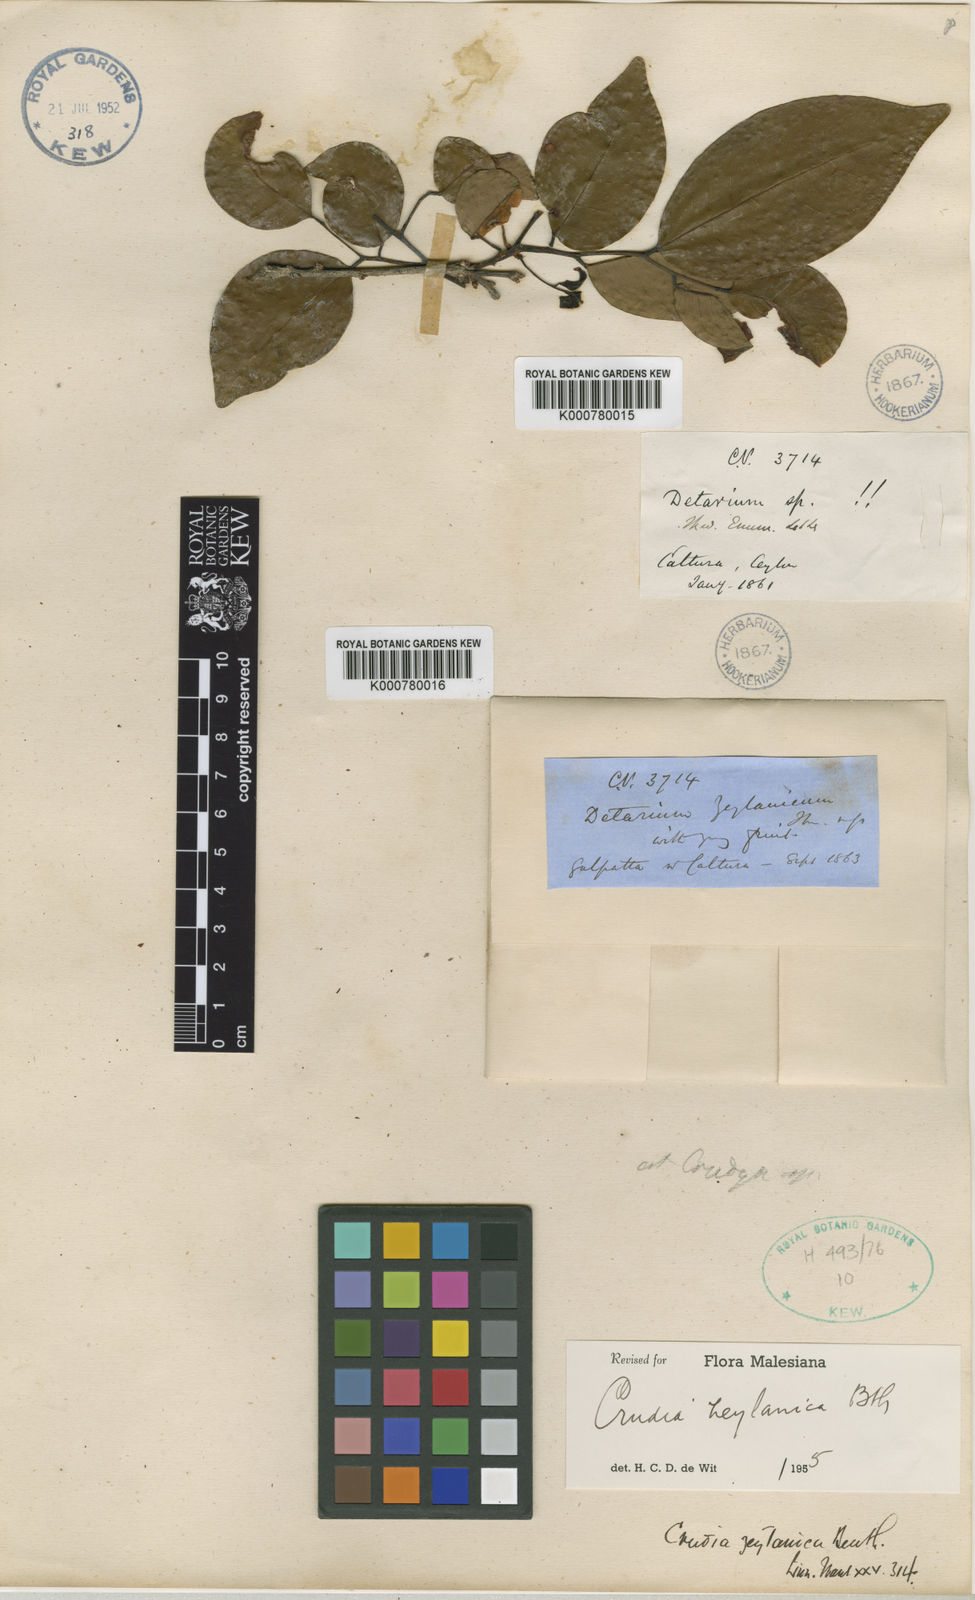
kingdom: Plantae
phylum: Tracheophyta
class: Magnoliopsida
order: Fabales
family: Fabaceae
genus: Crudia
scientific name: Crudia zeylanica
